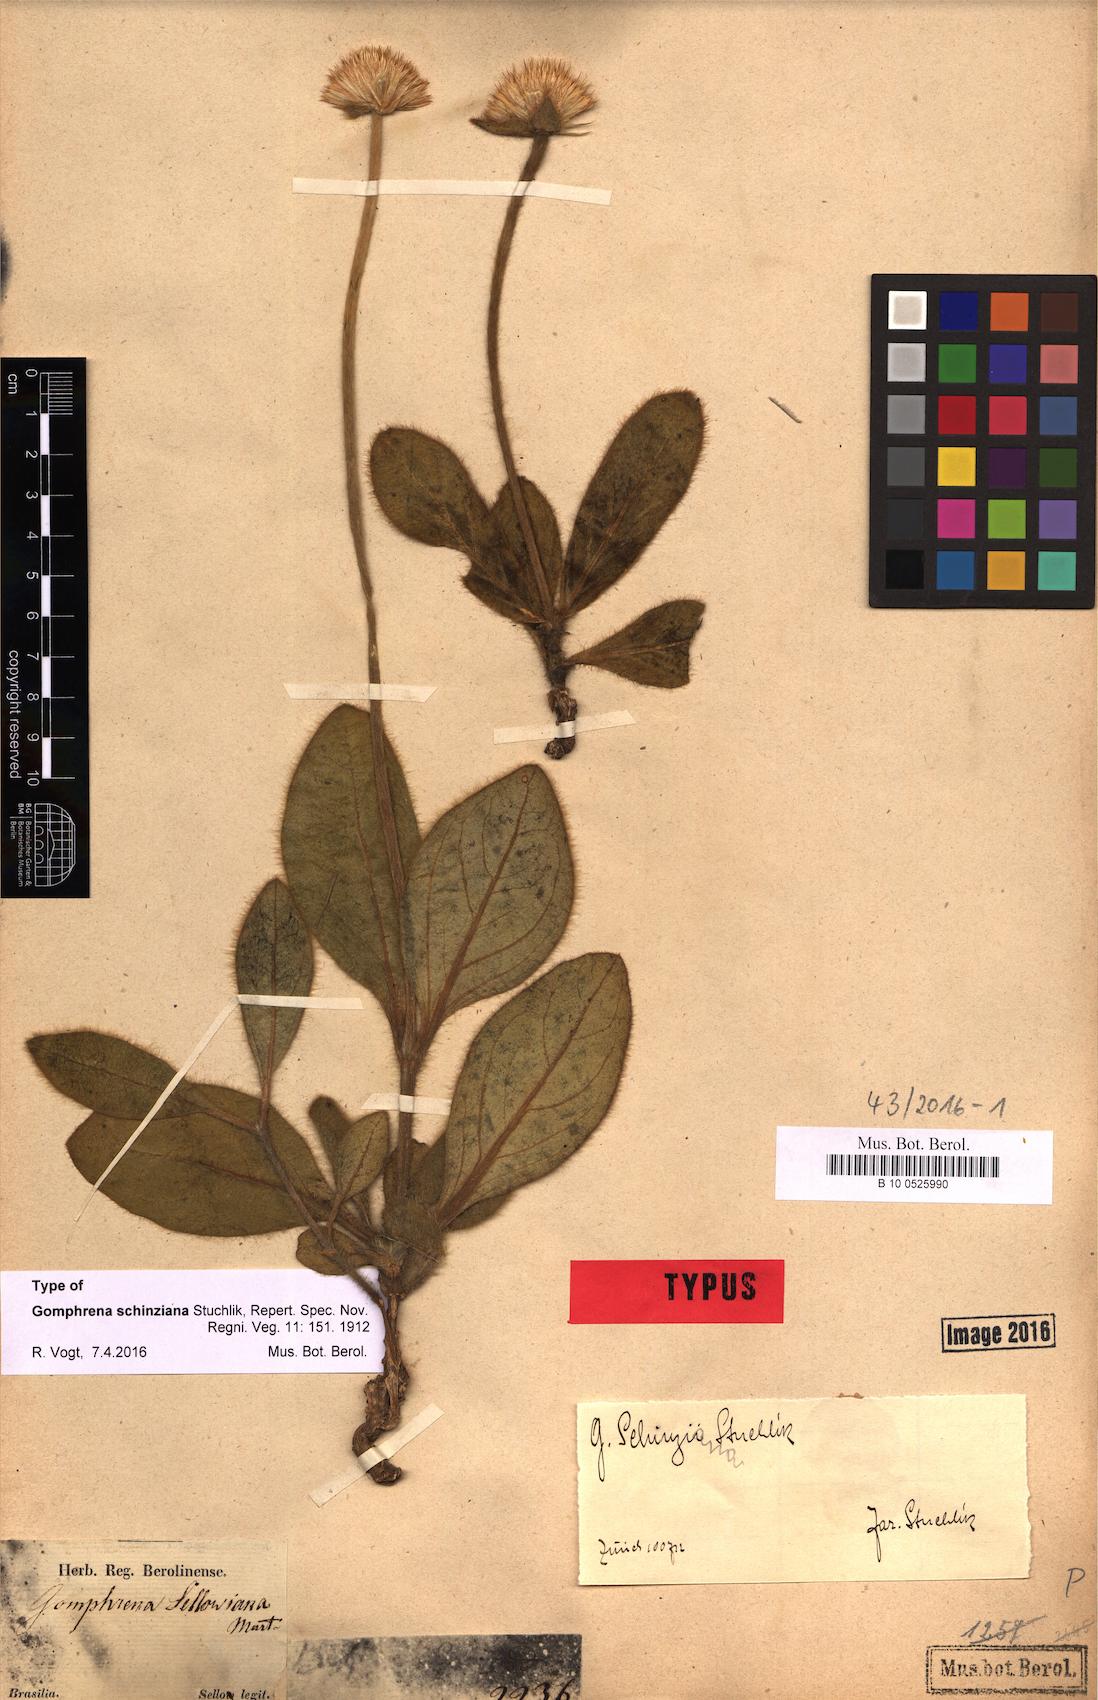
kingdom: Plantae
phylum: Tracheophyta
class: Magnoliopsida
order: Caryophyllales
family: Amaranthaceae
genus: Gomphrena
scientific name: Gomphrena
